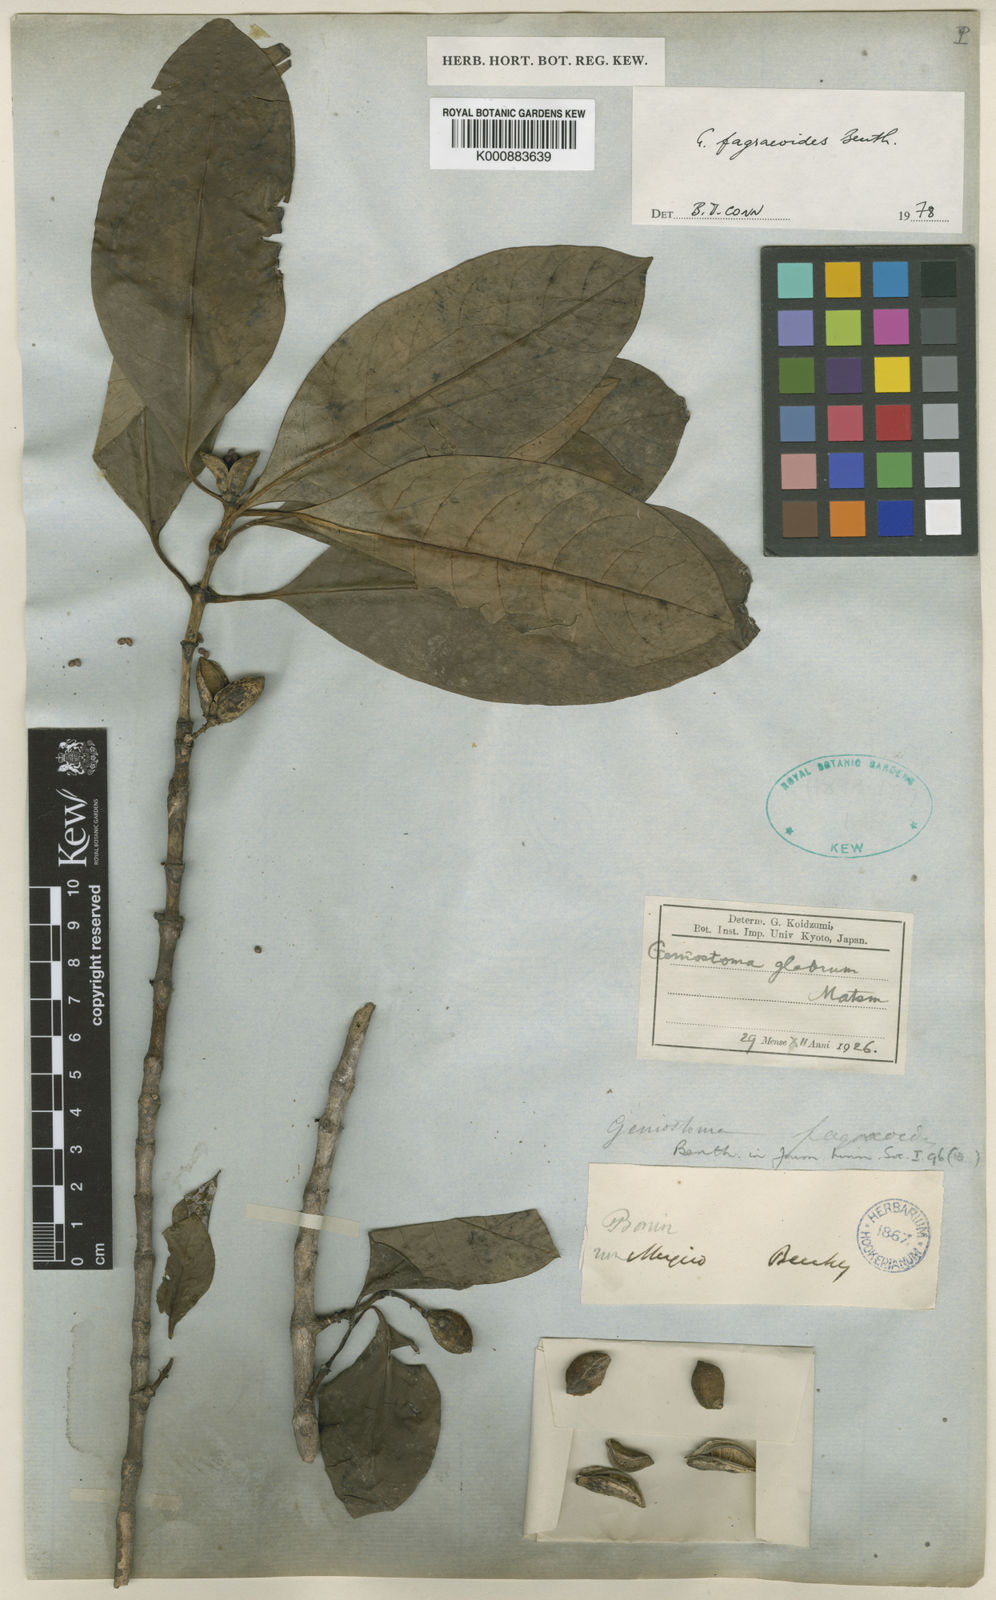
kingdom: Plantae
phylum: Tracheophyta
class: Magnoliopsida
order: Gentianales
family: Loganiaceae
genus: Geniostoma
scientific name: Geniostoma fagraeoides
